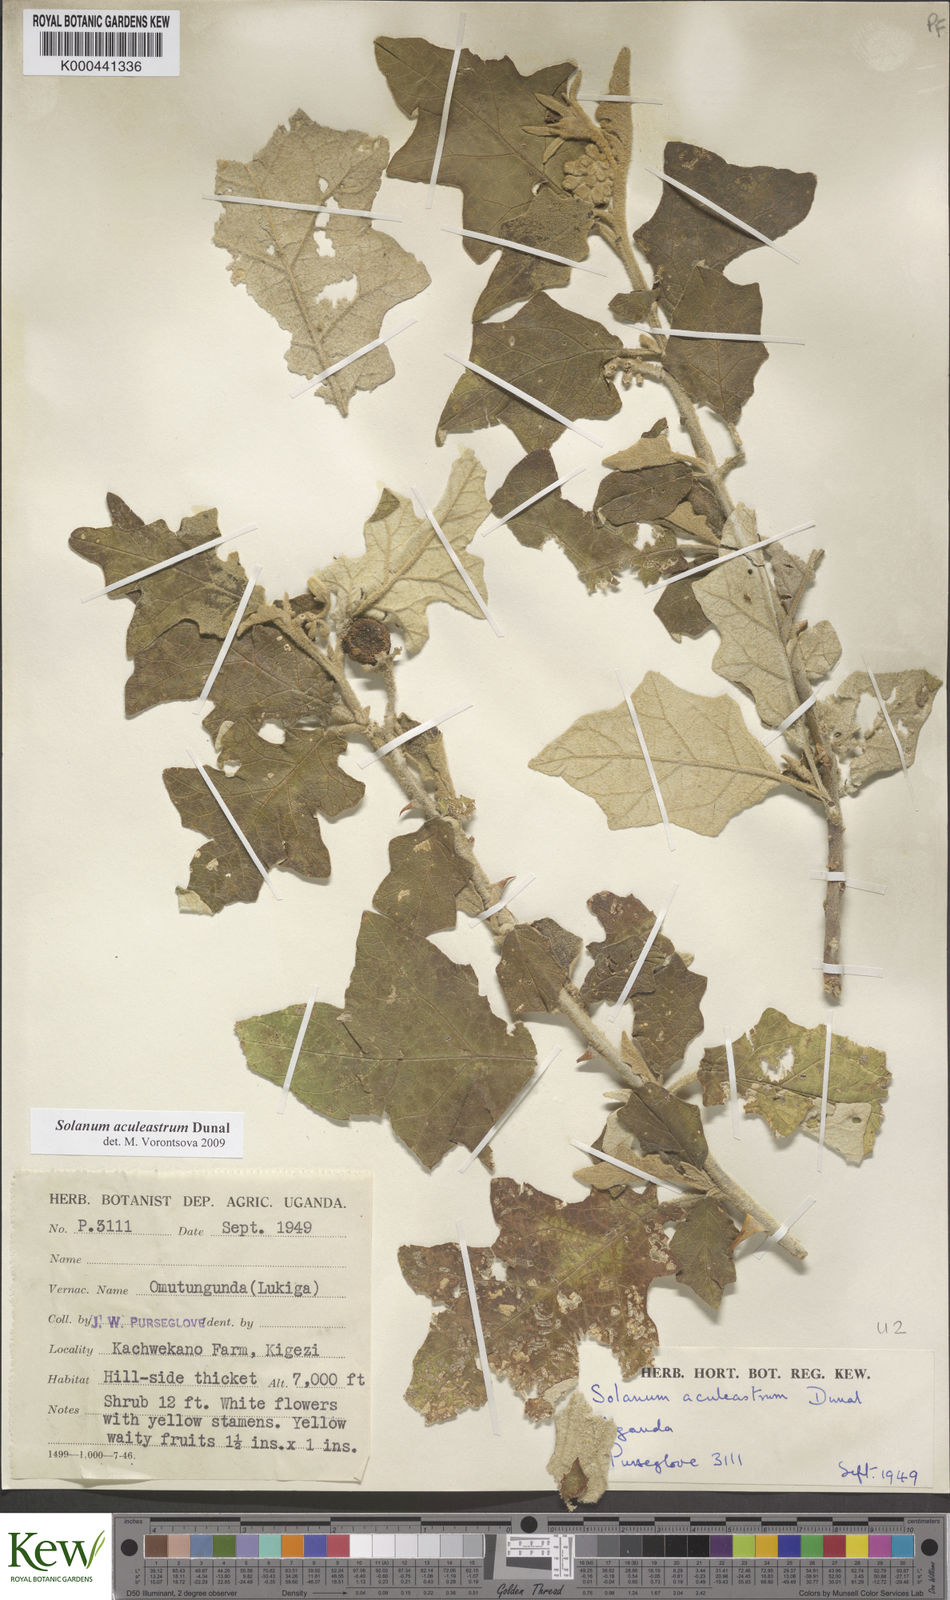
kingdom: Plantae
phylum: Tracheophyta
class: Magnoliopsida
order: Solanales
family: Solanaceae
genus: Solanum
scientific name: Solanum aculeastrum
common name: Goat bitter-apple
